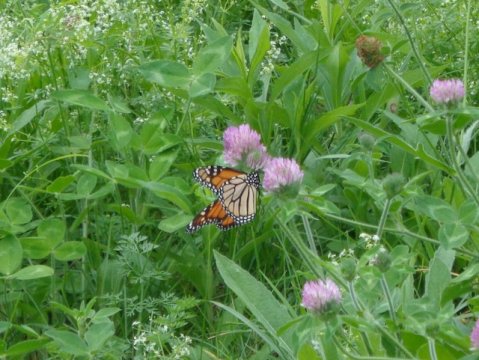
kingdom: Animalia
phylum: Arthropoda
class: Insecta
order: Lepidoptera
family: Nymphalidae
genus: Danaus
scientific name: Danaus plexippus
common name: Monarch
